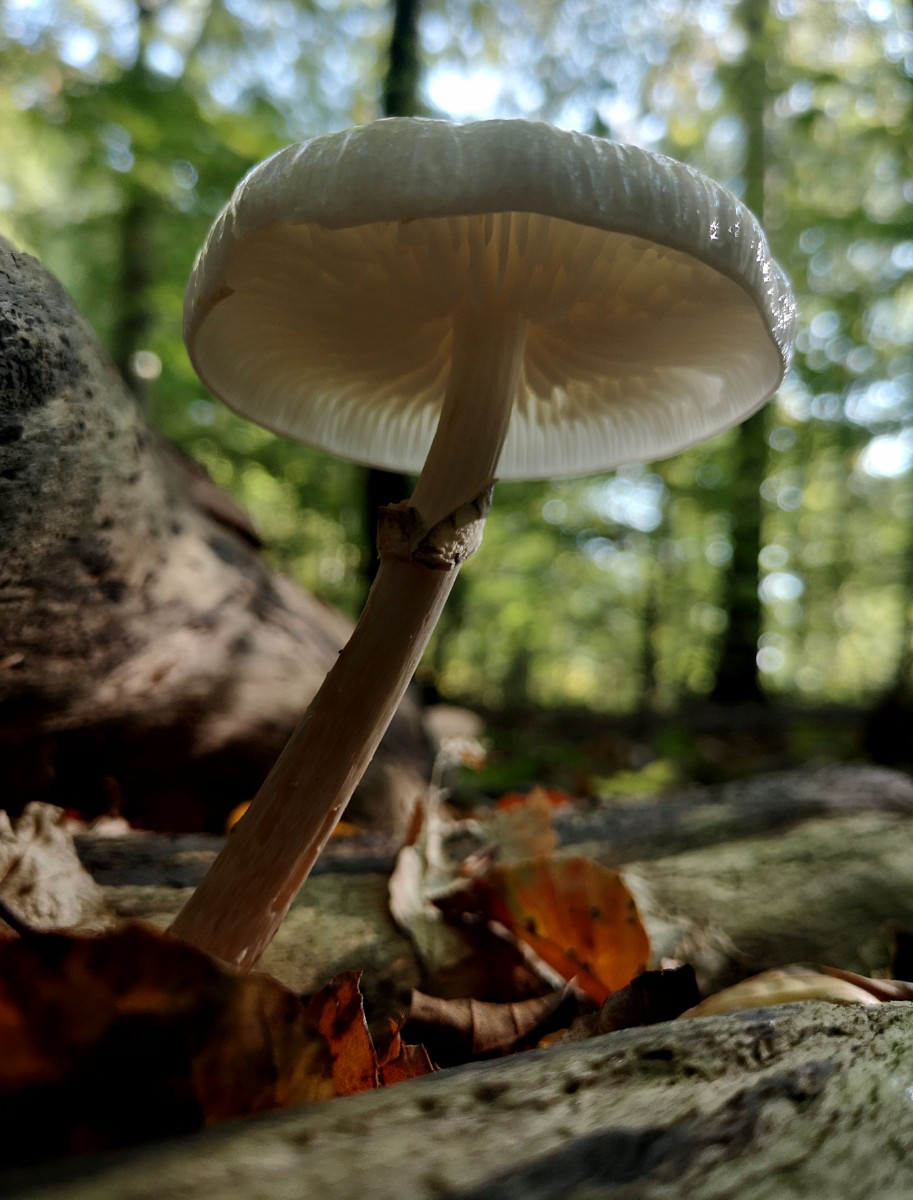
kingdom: Fungi
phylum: Basidiomycota
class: Agaricomycetes
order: Agaricales
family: Physalacriaceae
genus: Mucidula
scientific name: Mucidula mucida
